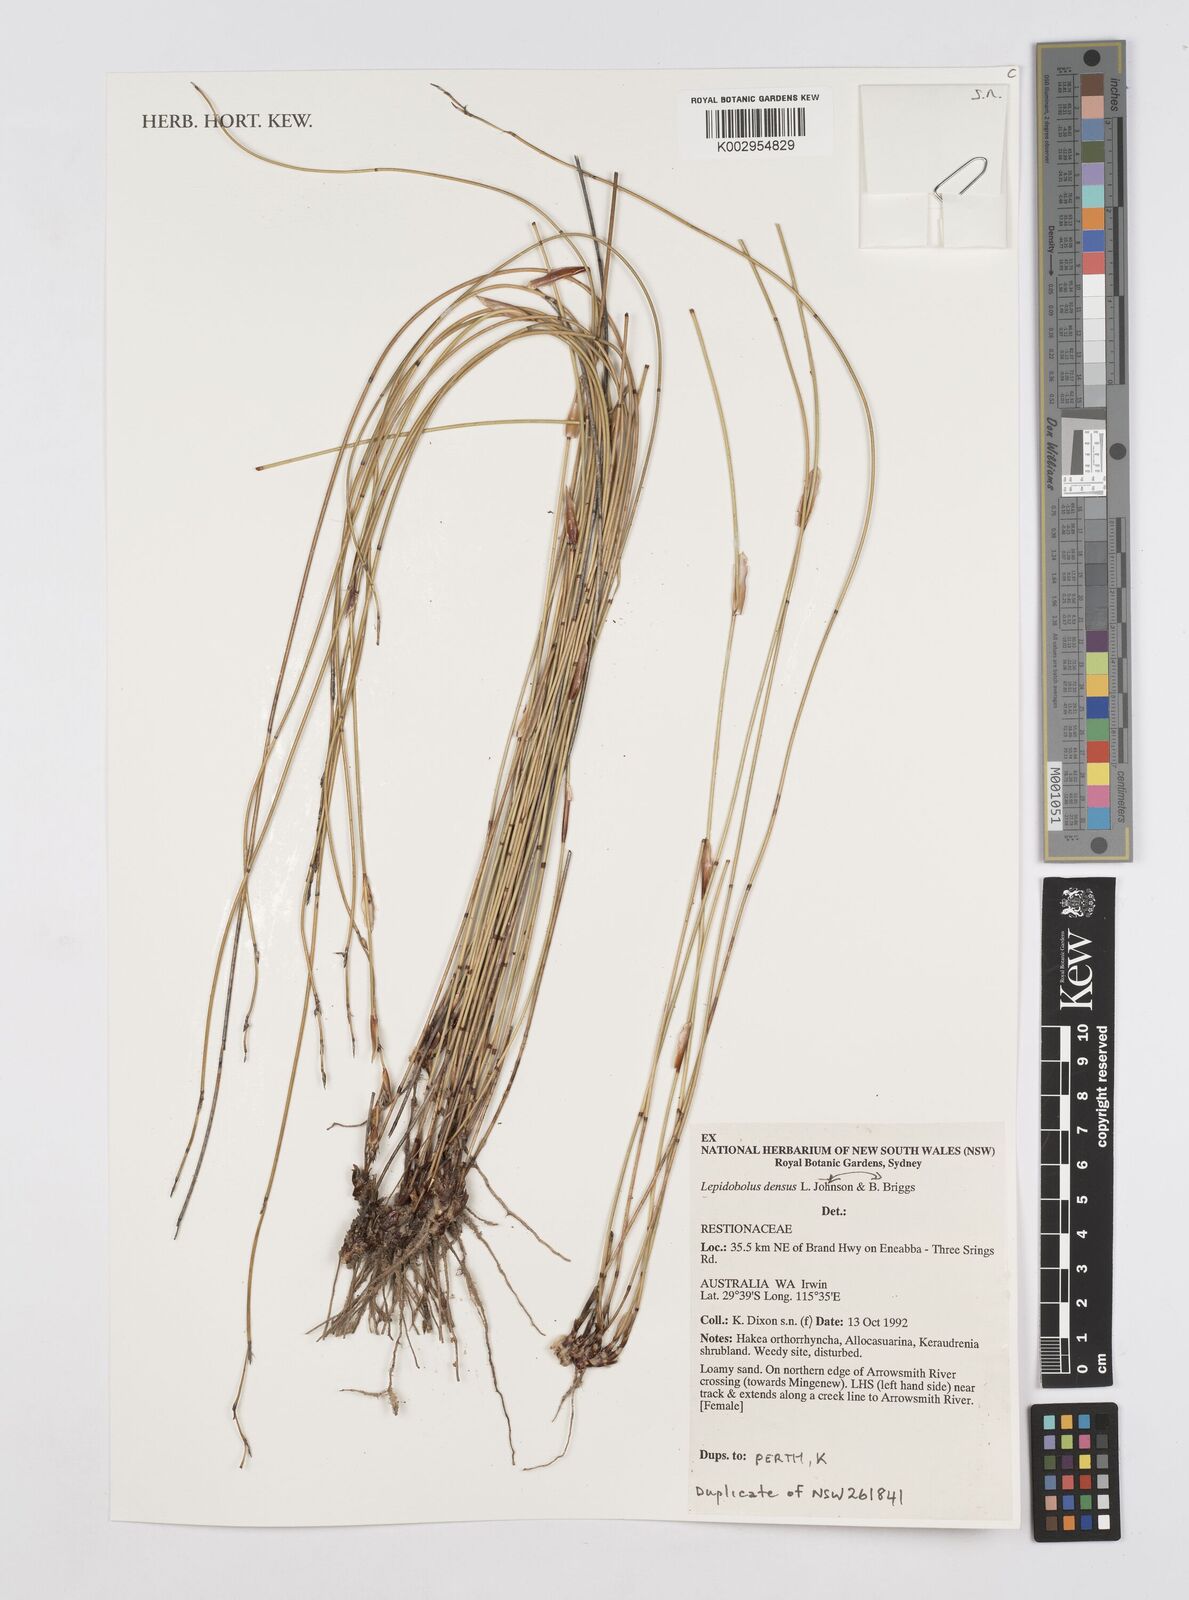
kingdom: Plantae
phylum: Tracheophyta
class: Liliopsida
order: Poales
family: Restionaceae
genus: Lepidobolus
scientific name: Lepidobolus densus
